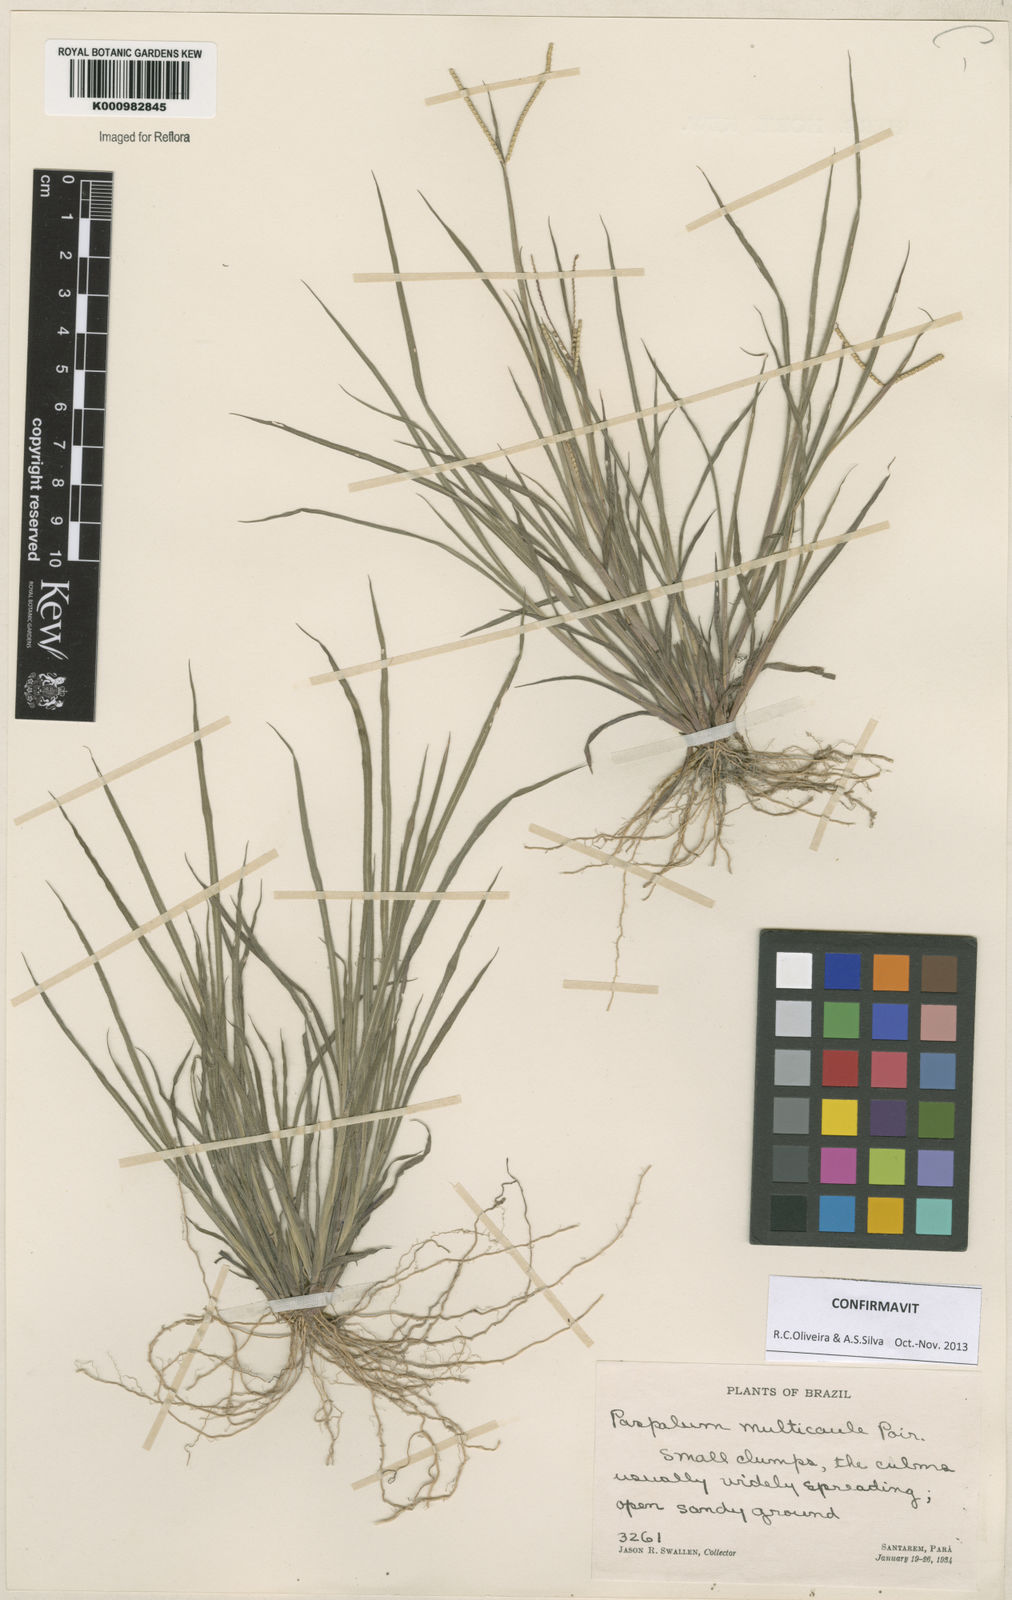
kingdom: Plantae
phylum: Tracheophyta
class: Liliopsida
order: Poales
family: Poaceae
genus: Paspalum
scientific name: Paspalum multicaule
